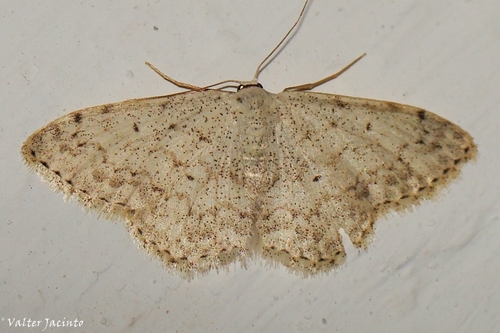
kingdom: Animalia
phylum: Arthropoda
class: Insecta
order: Lepidoptera
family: Geometridae
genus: Scopula
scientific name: Scopula marginepunctata
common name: Mullein wave
